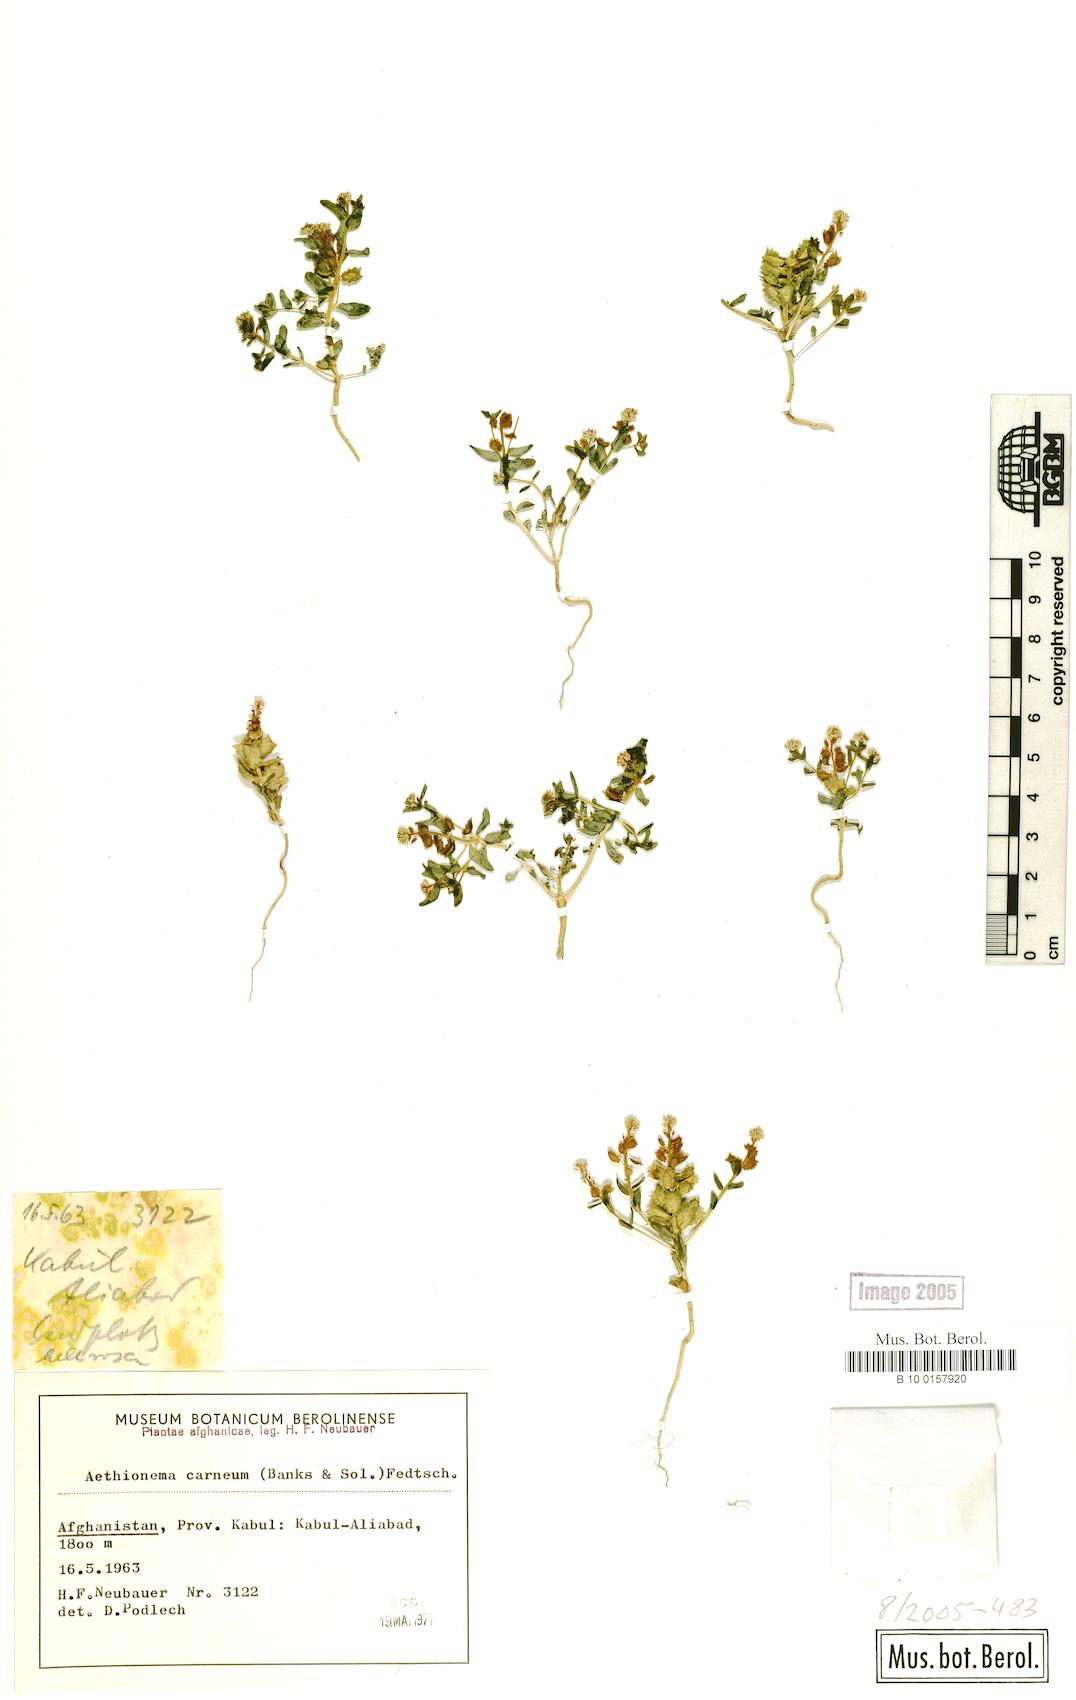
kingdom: Plantae
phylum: Tracheophyta
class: Magnoliopsida
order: Brassicales
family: Brassicaceae
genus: Aethionema
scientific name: Aethionema carneum
